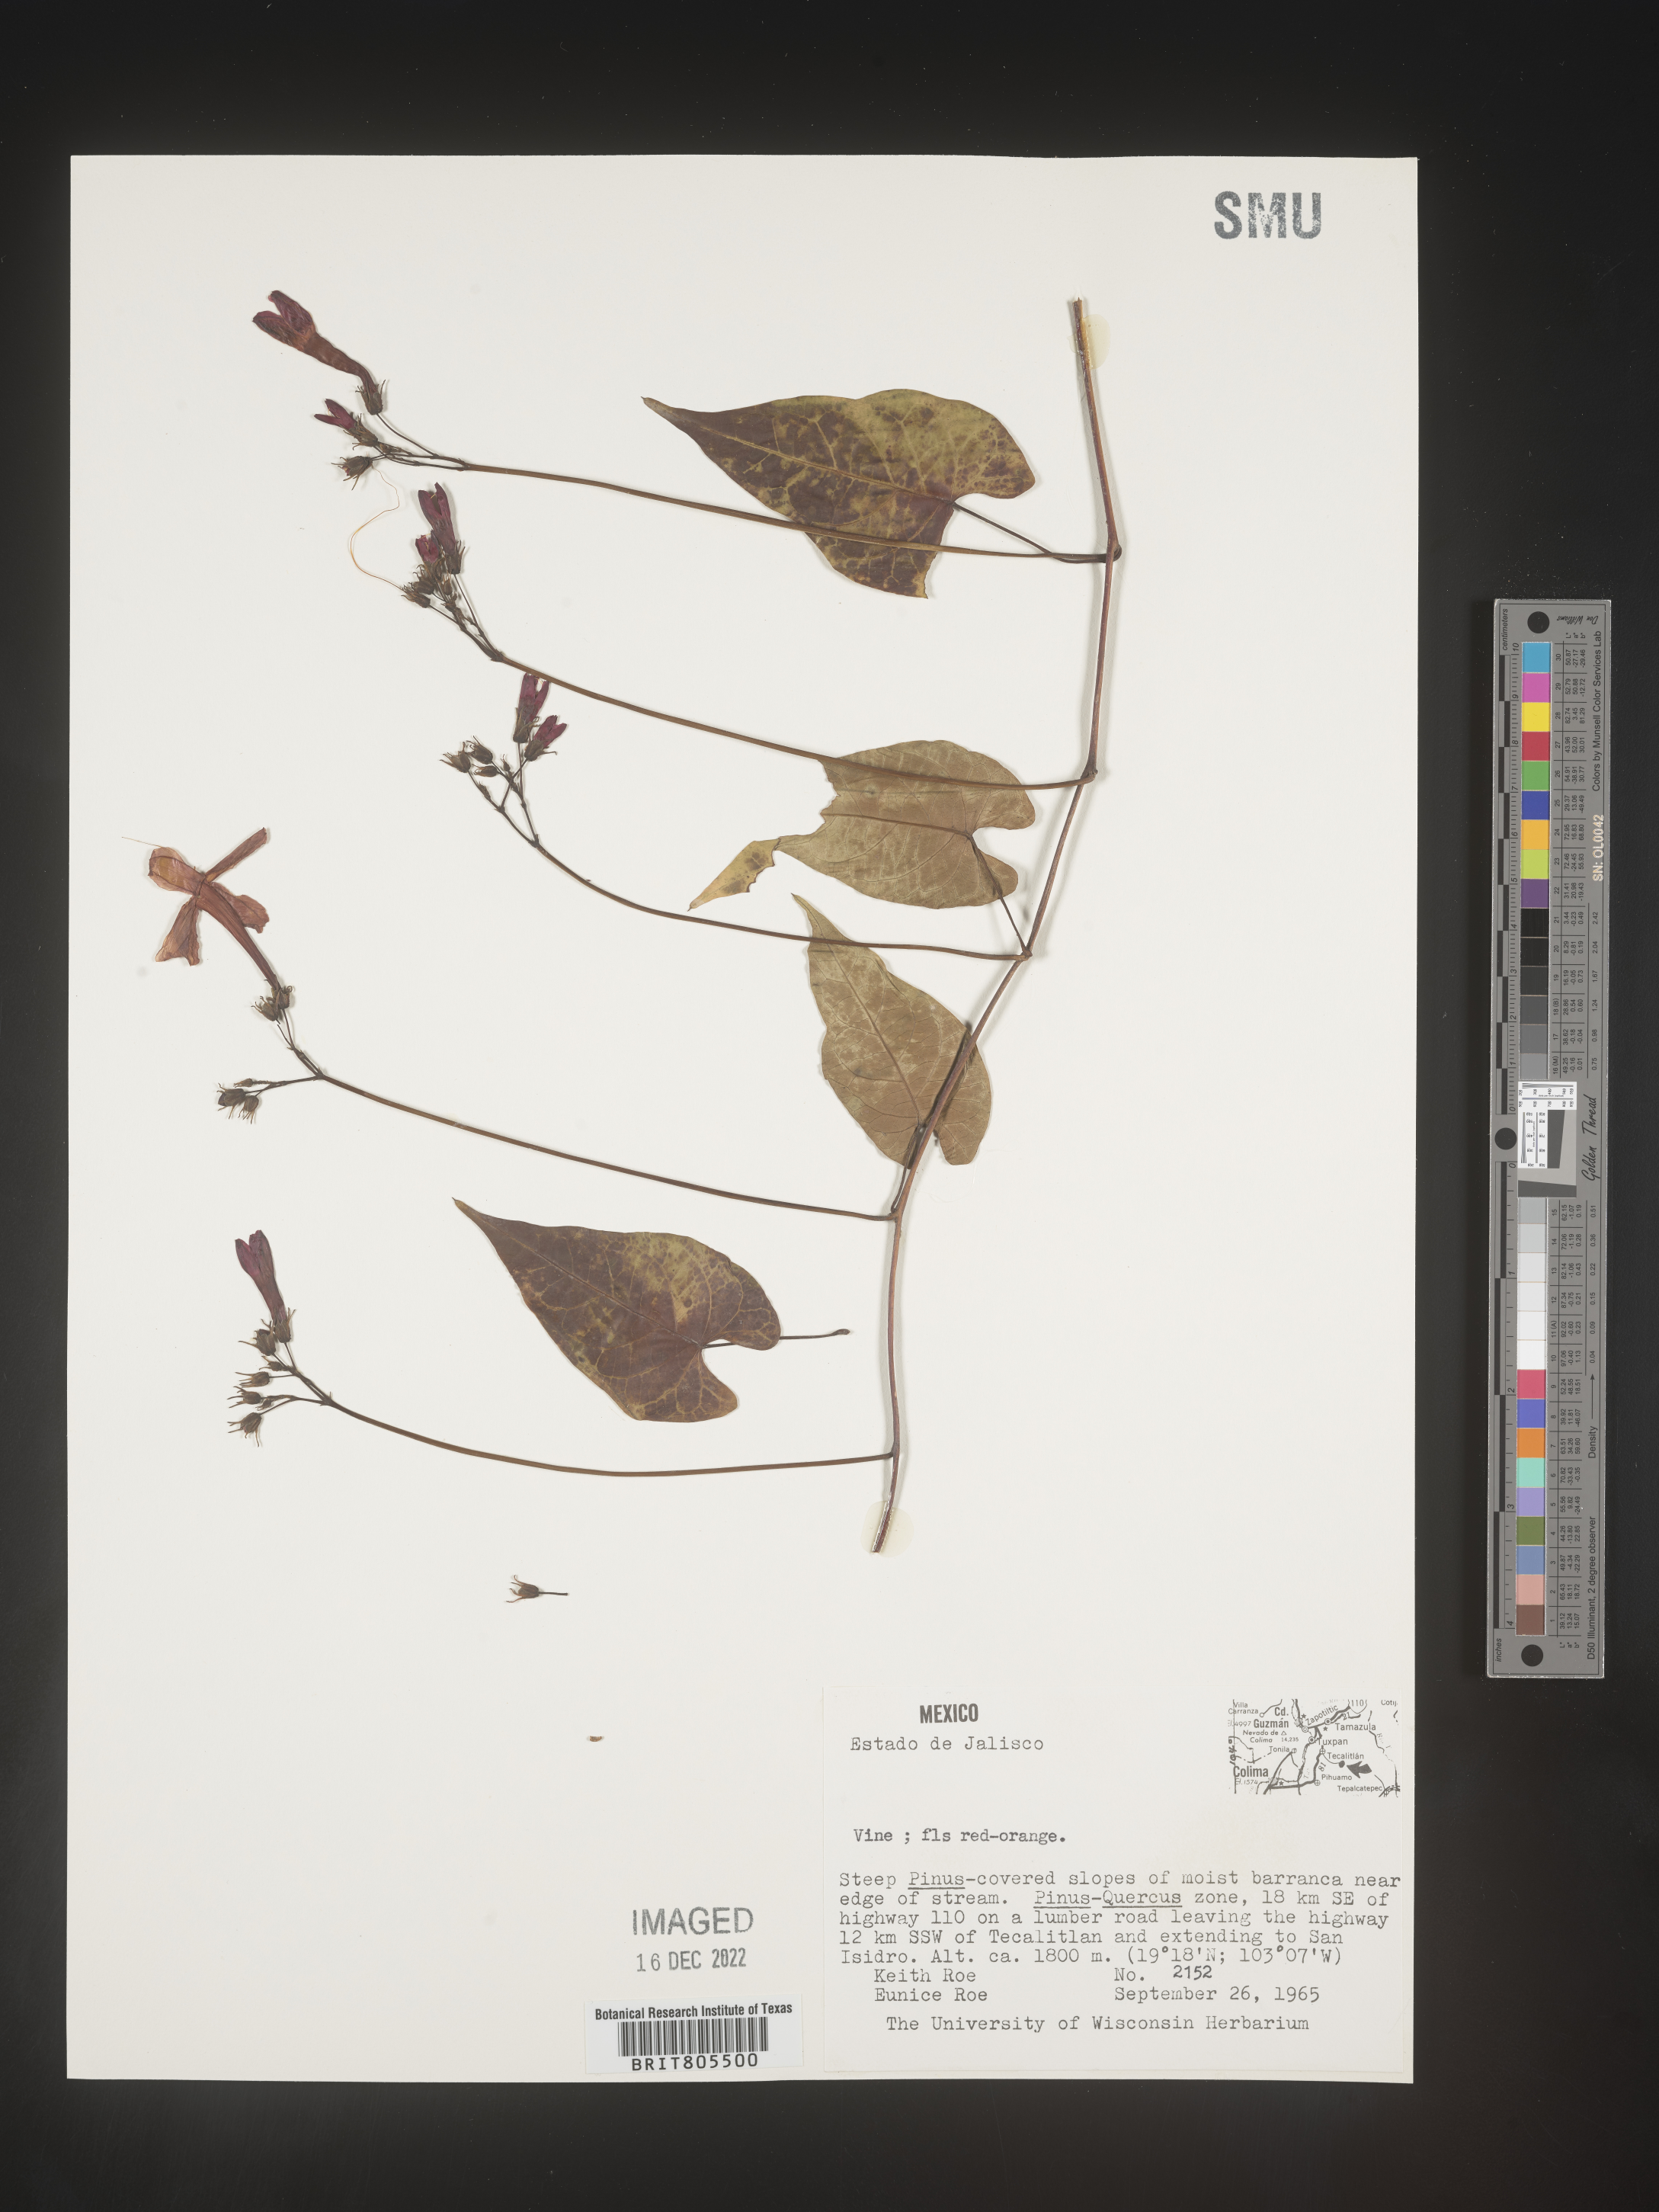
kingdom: Plantae
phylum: Tracheophyta
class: Magnoliopsida
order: Solanales
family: Convolvulaceae
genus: Ipomoea
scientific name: Ipomoea
